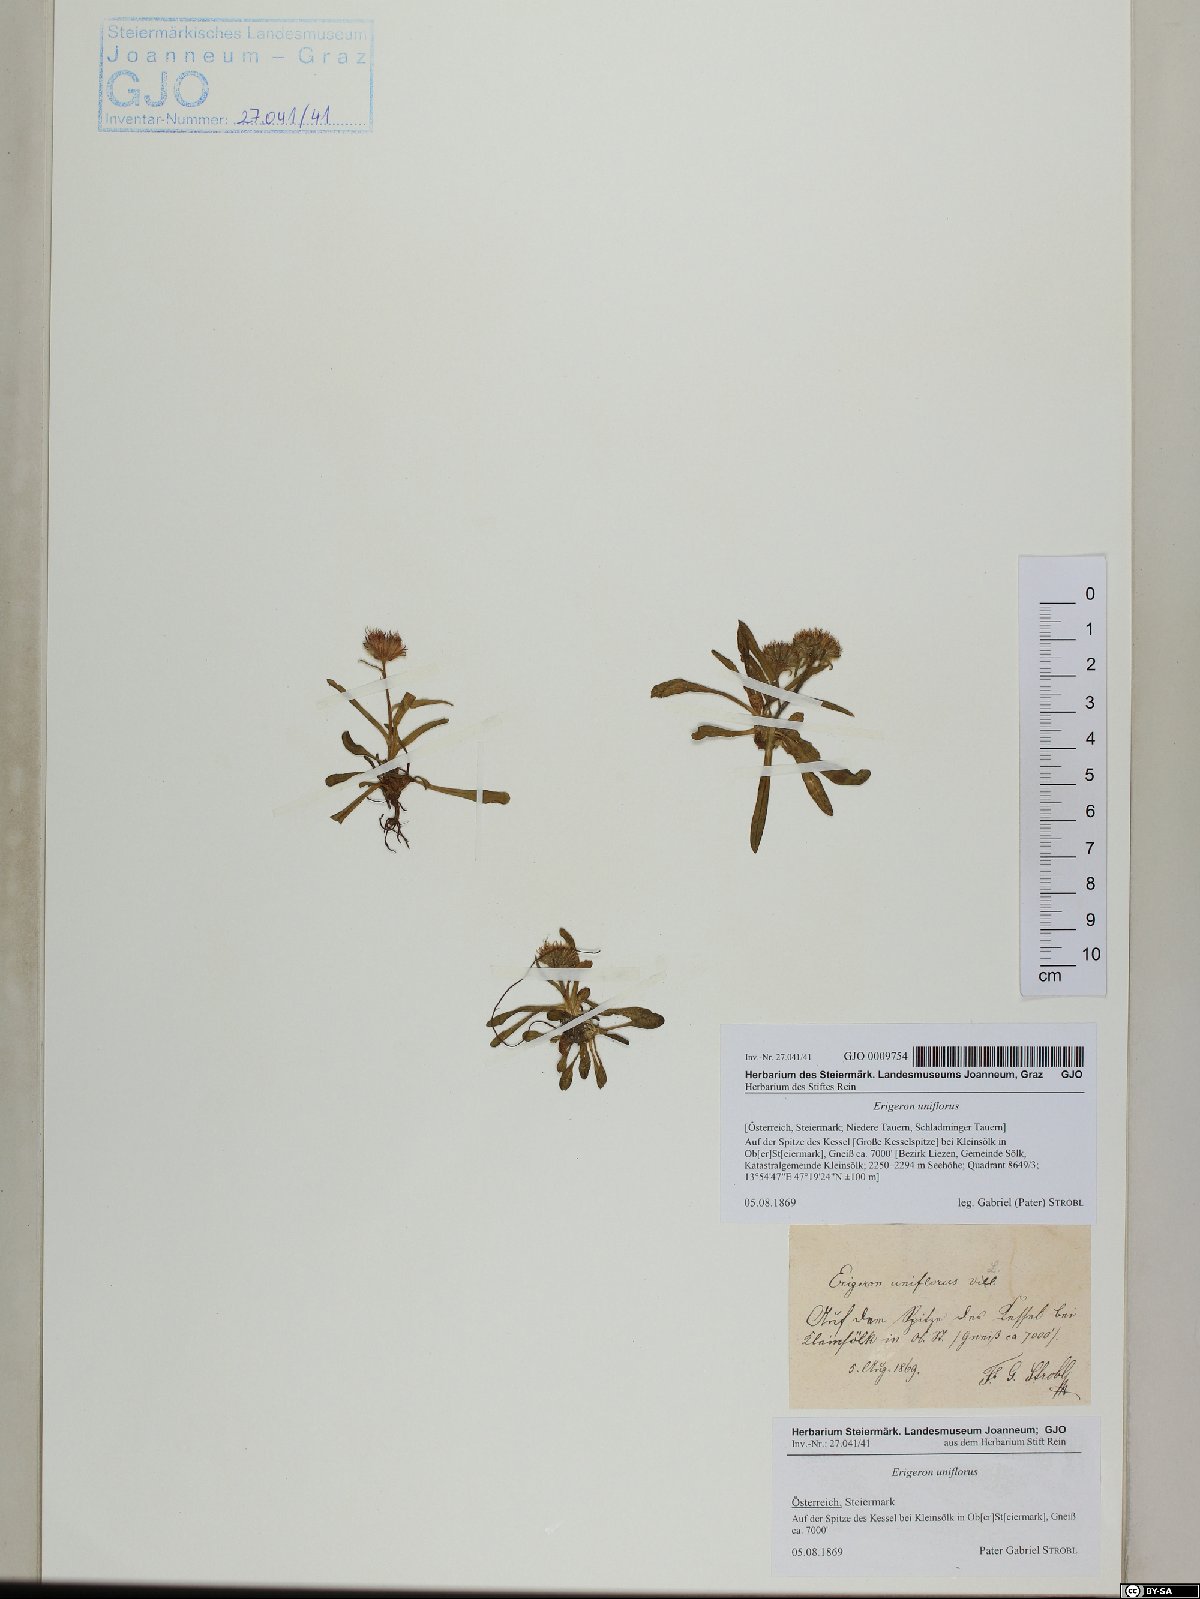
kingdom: Plantae
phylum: Tracheophyta
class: Magnoliopsida
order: Asterales
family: Asteraceae
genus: Erigeron
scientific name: Erigeron uniflorus
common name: Northern daisy
